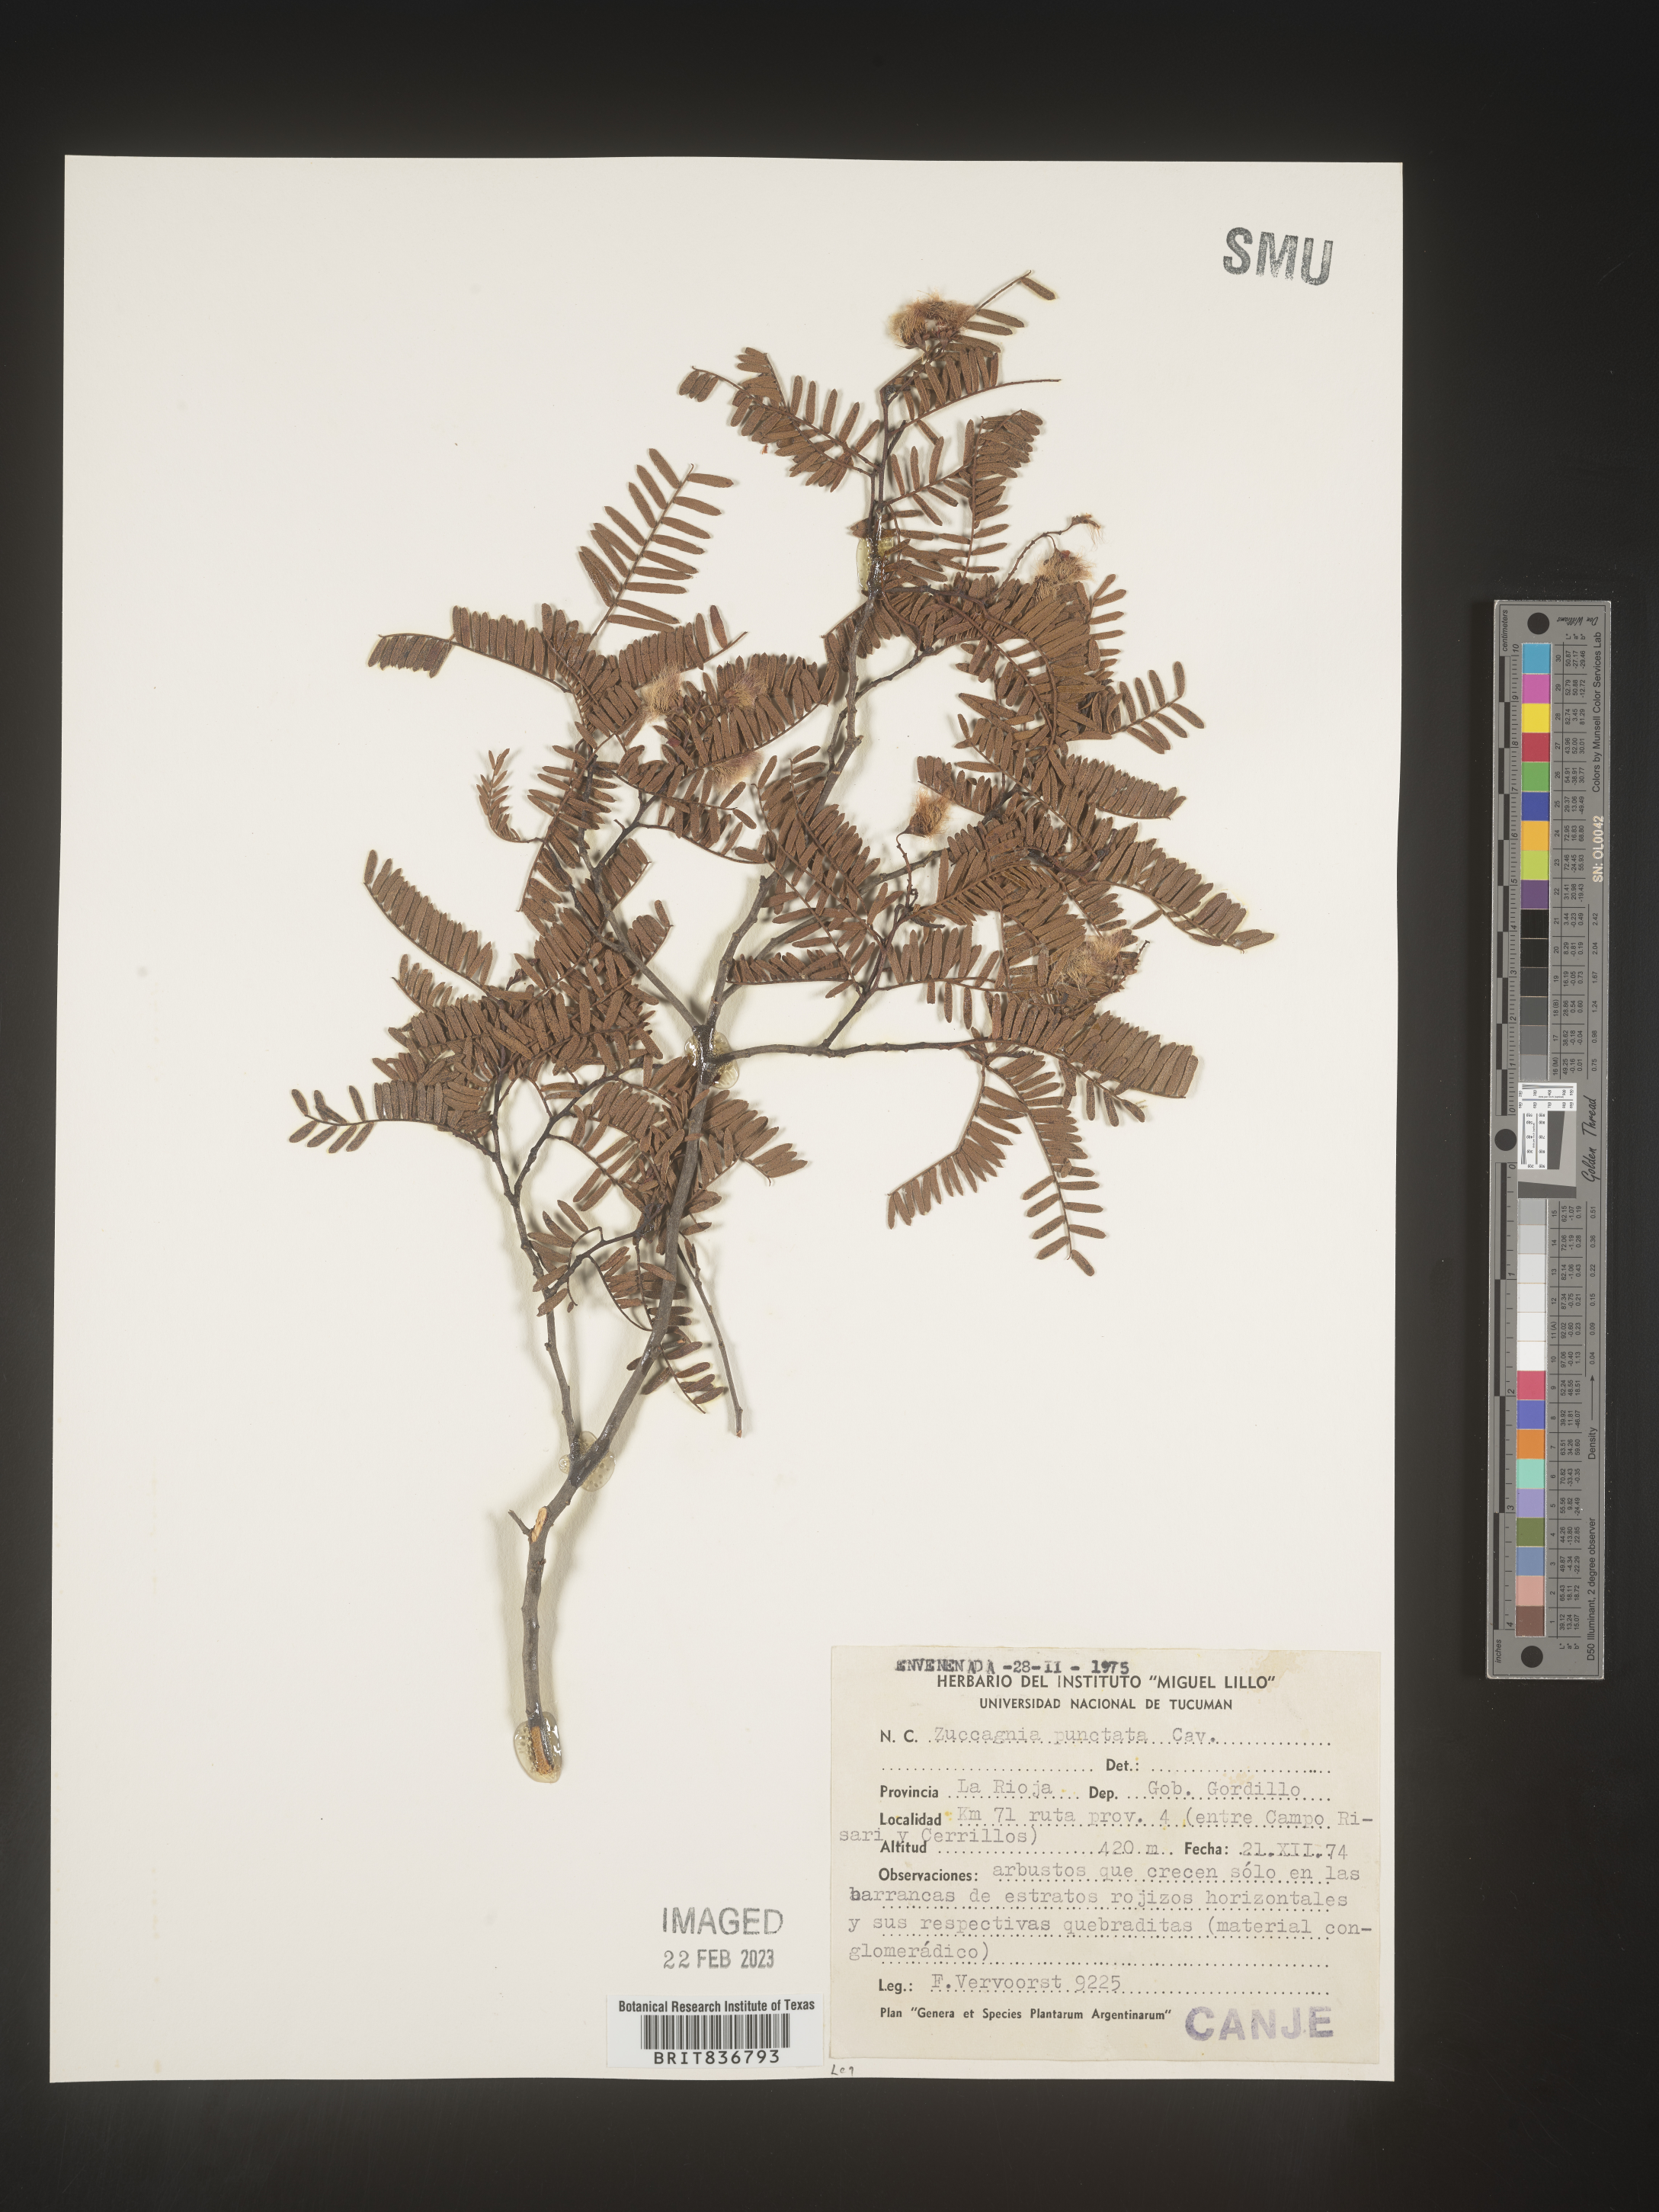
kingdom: Plantae
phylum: Tracheophyta
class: Magnoliopsida
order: Fabales
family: Fabaceae
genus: Zuccagnia
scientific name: Zuccagnia
